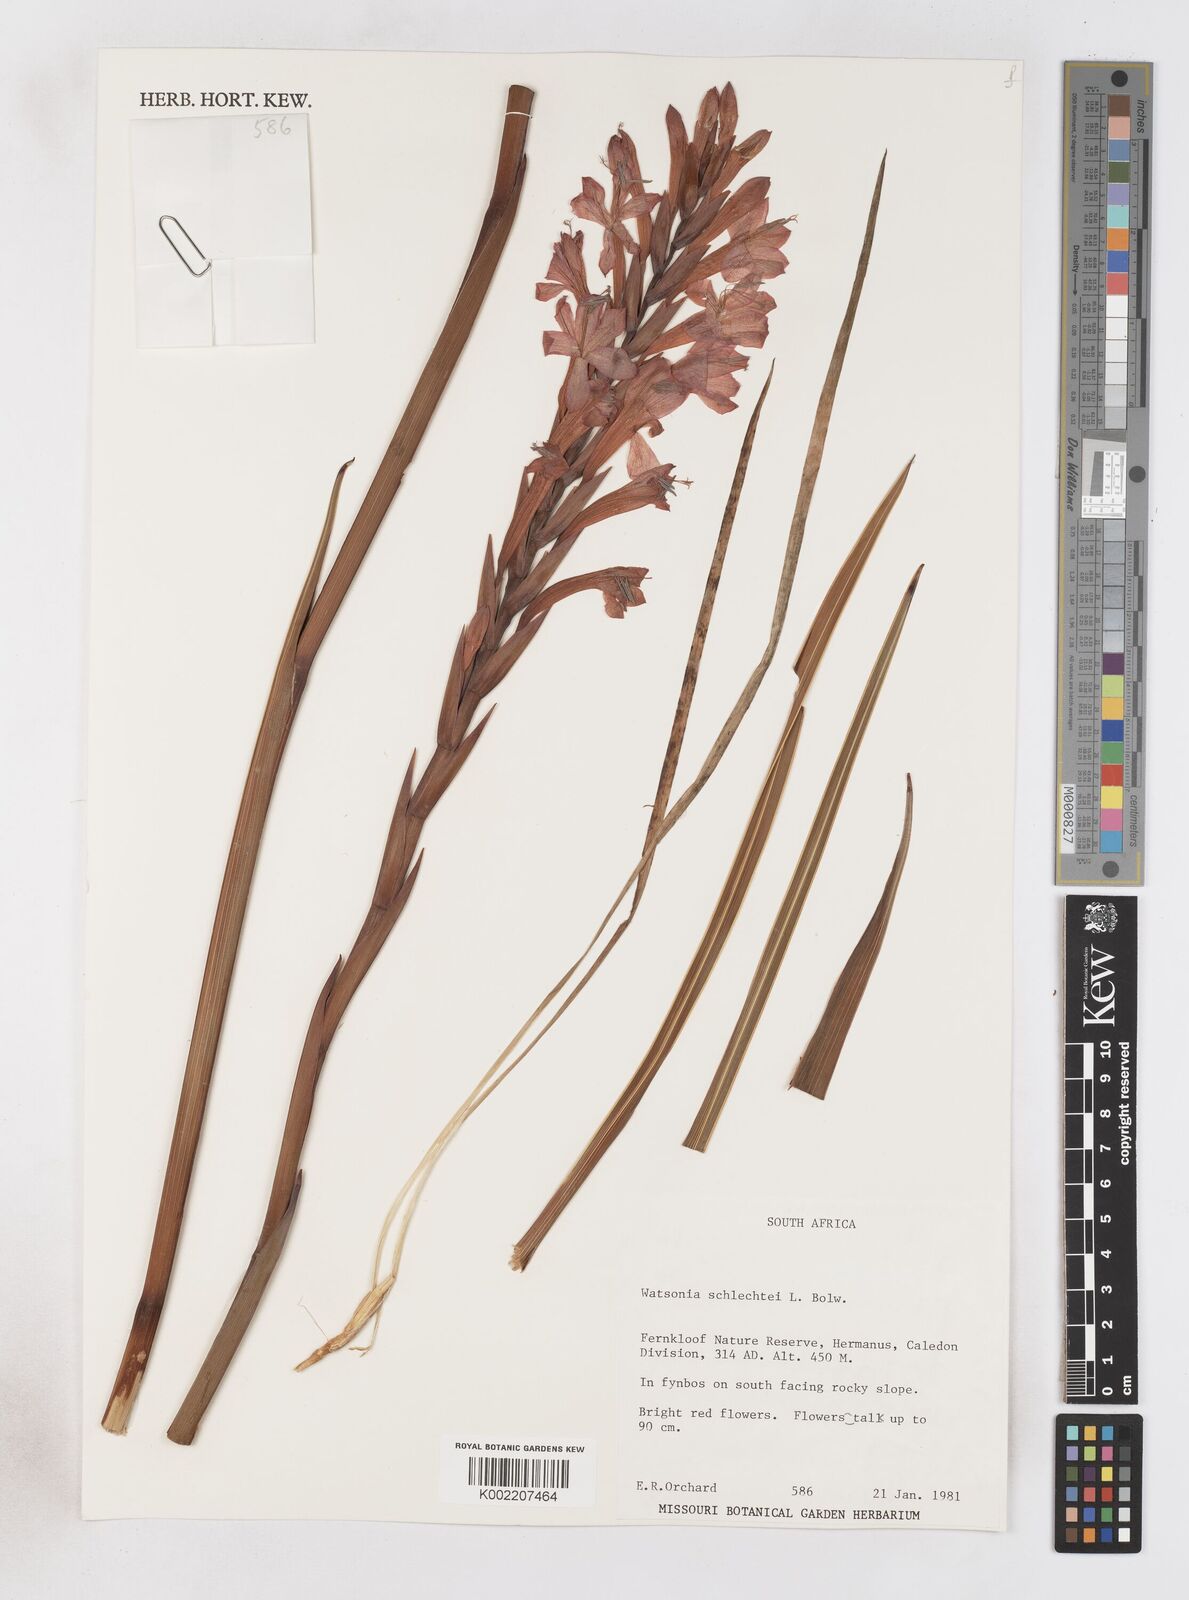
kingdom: Plantae
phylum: Tracheophyta
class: Liliopsida
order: Asparagales
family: Iridaceae
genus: Watsonia
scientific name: Watsonia schlechteri
